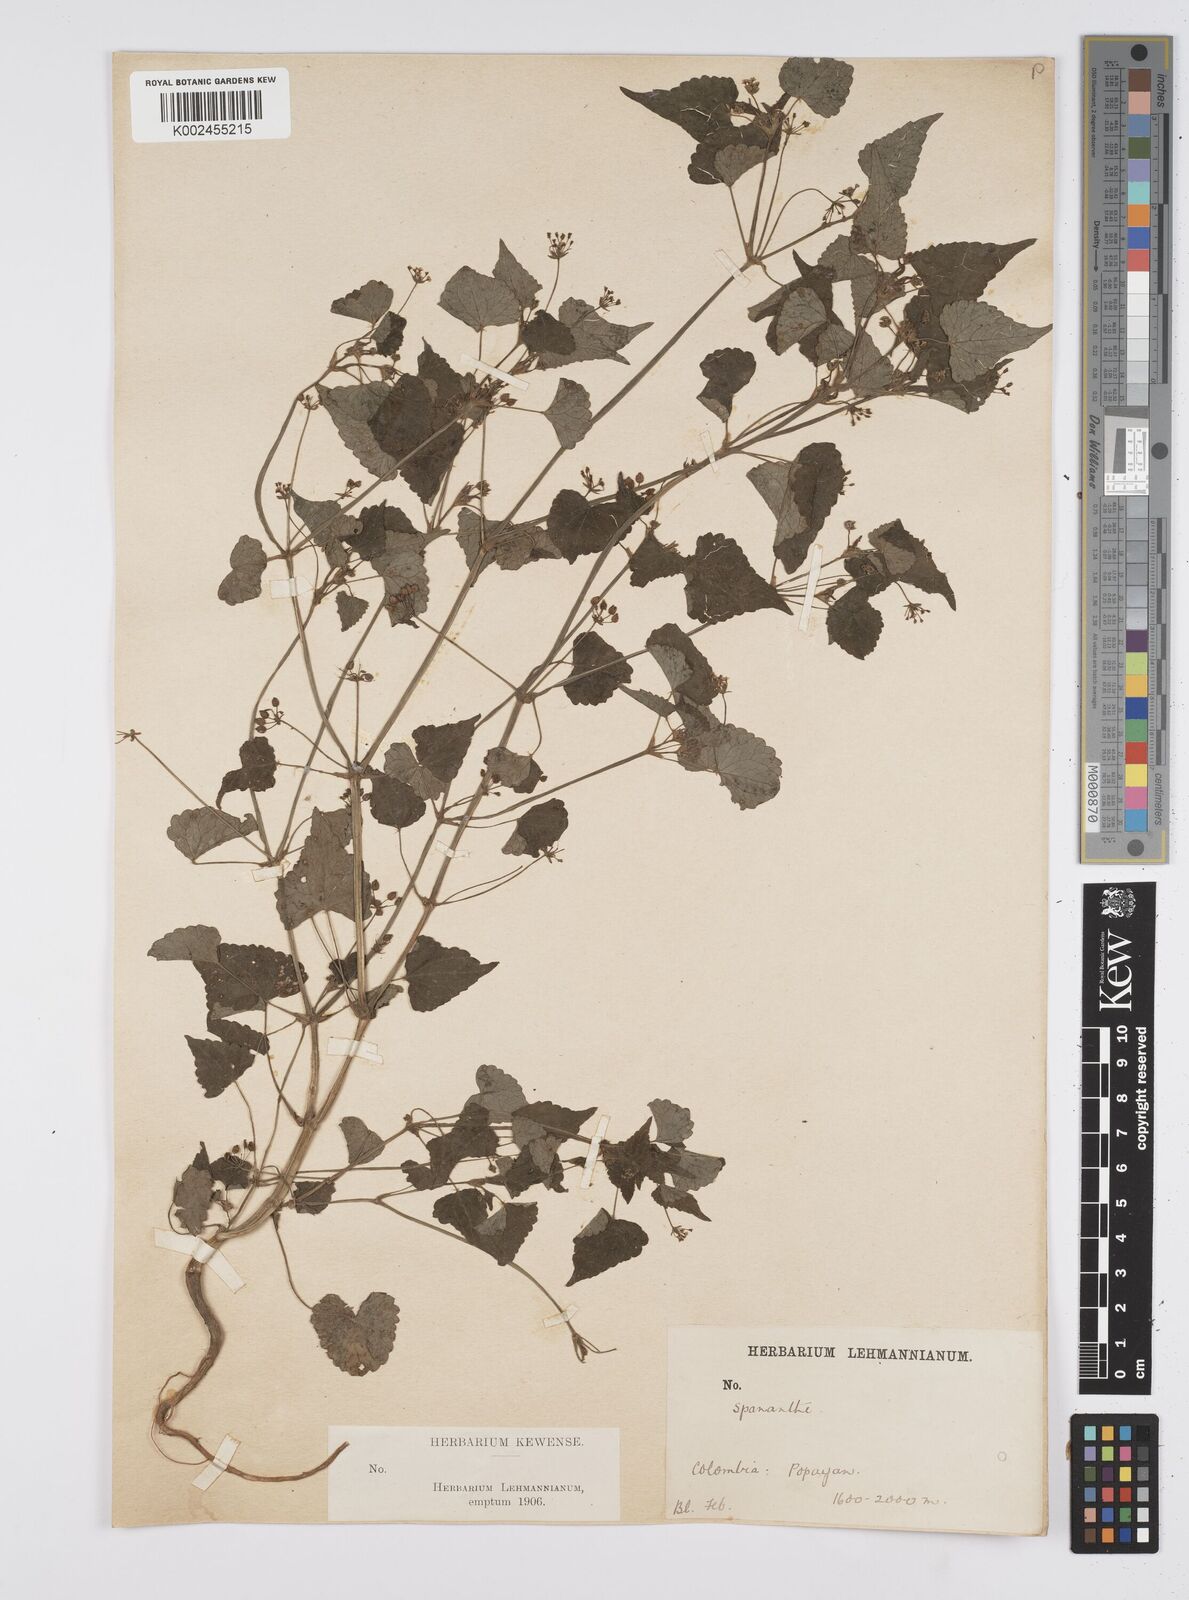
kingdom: Plantae
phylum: Tracheophyta
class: Magnoliopsida
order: Apiales
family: Apiaceae
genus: Azorella
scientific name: Azorella
